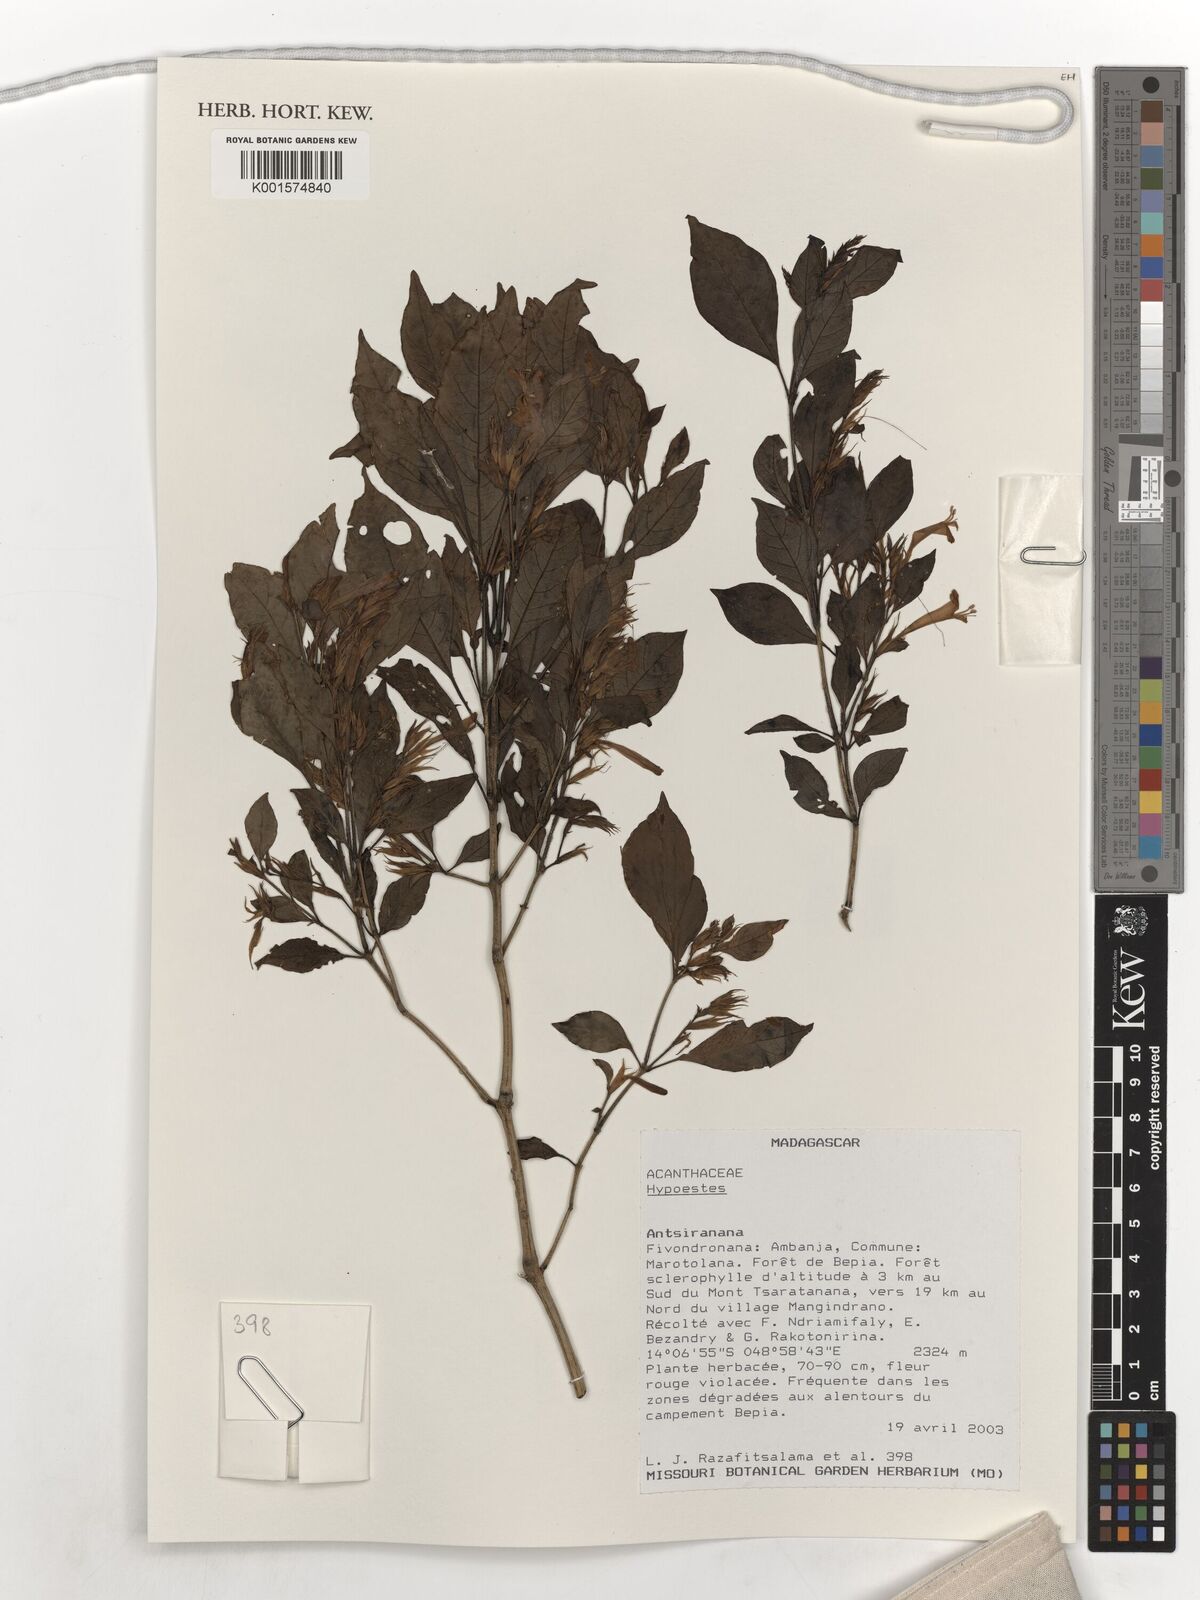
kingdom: Plantae
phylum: Tracheophyta
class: Magnoliopsida
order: Lamiales
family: Acanthaceae
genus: Hypoestes
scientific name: Hypoestes
